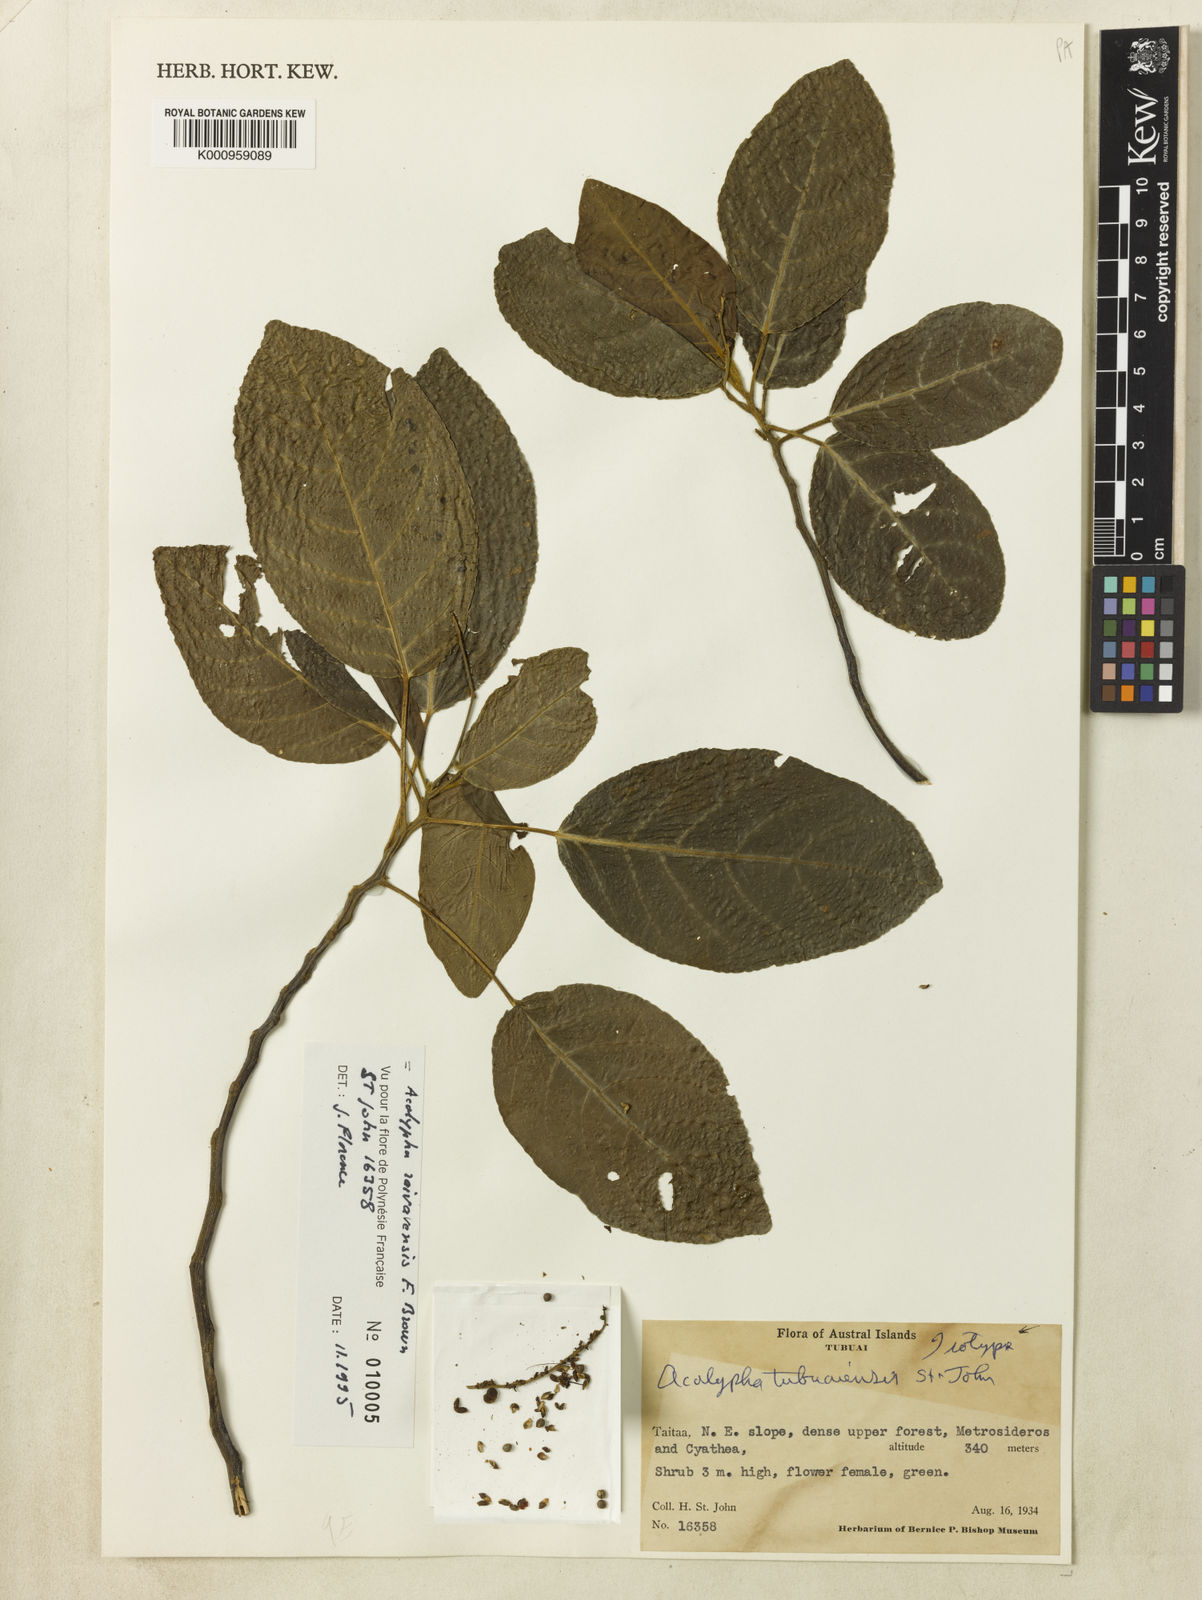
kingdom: Plantae
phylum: Tracheophyta
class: Magnoliopsida
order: Malpighiales
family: Euphorbiaceae
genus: Acalypha
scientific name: Acalypha raivavensis
